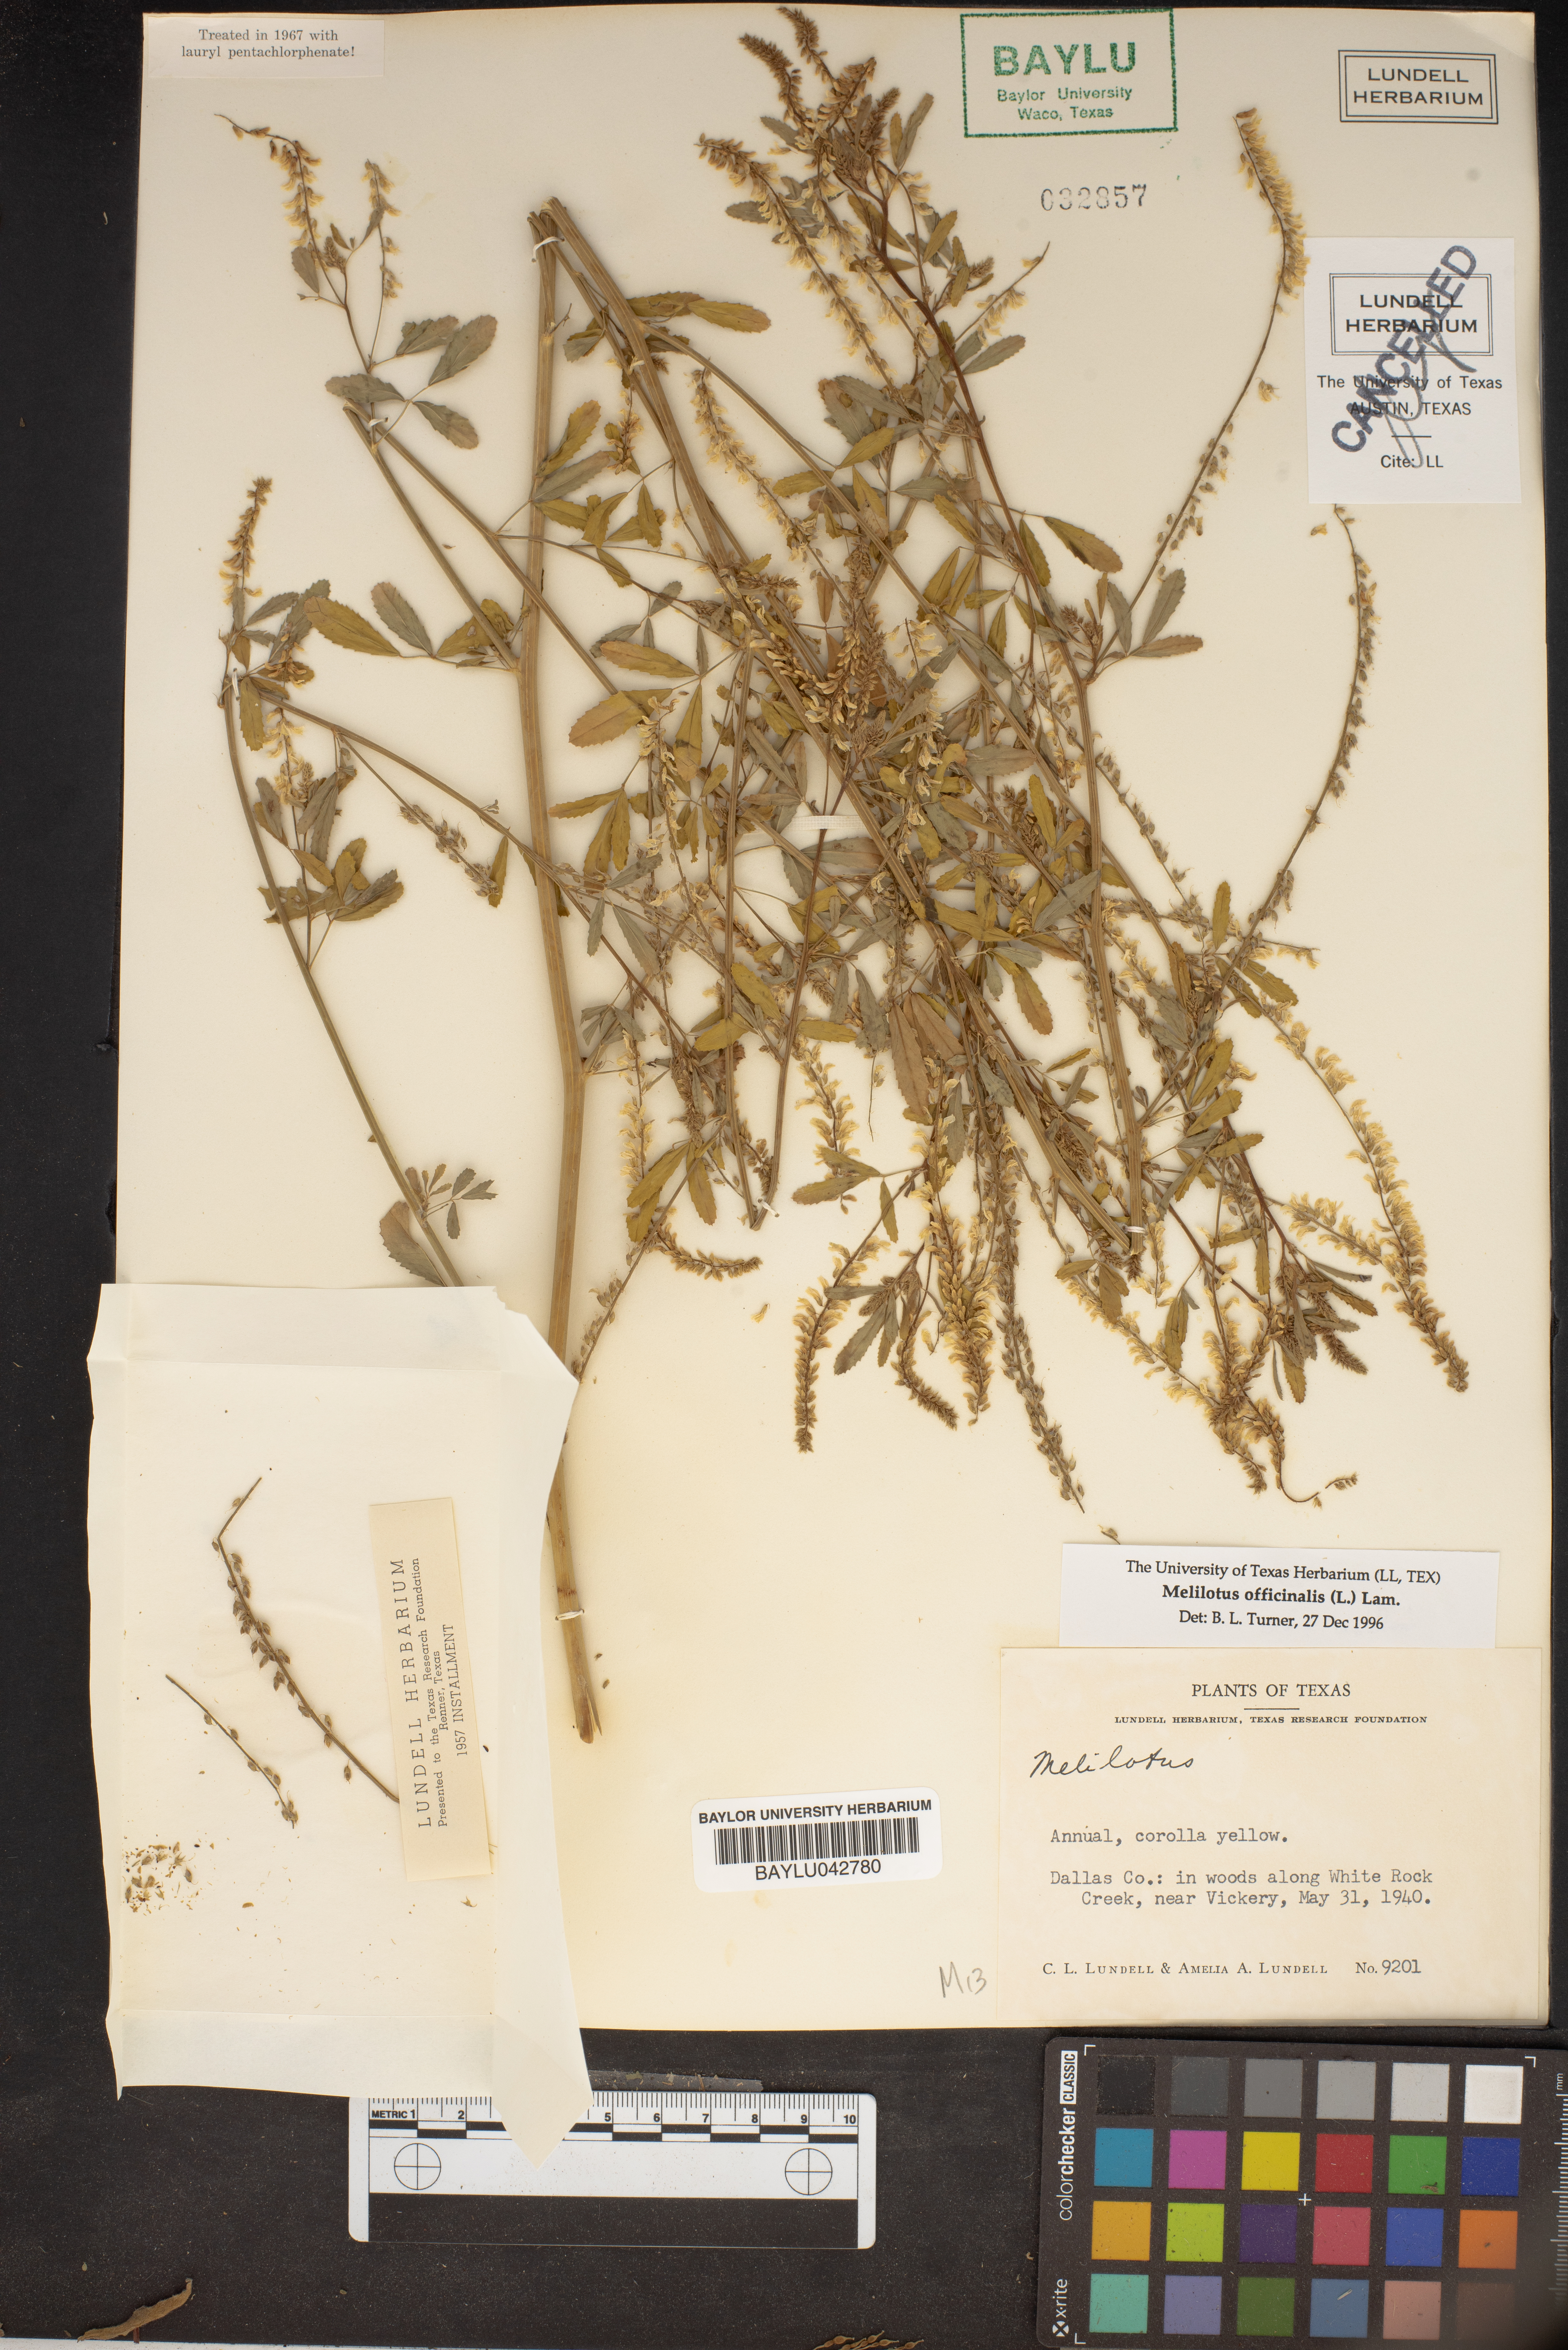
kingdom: Plantae
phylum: Tracheophyta
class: Magnoliopsida
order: Fabales
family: Fabaceae
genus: Melilotus
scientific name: Melilotus officinalis
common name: Sweetclover
